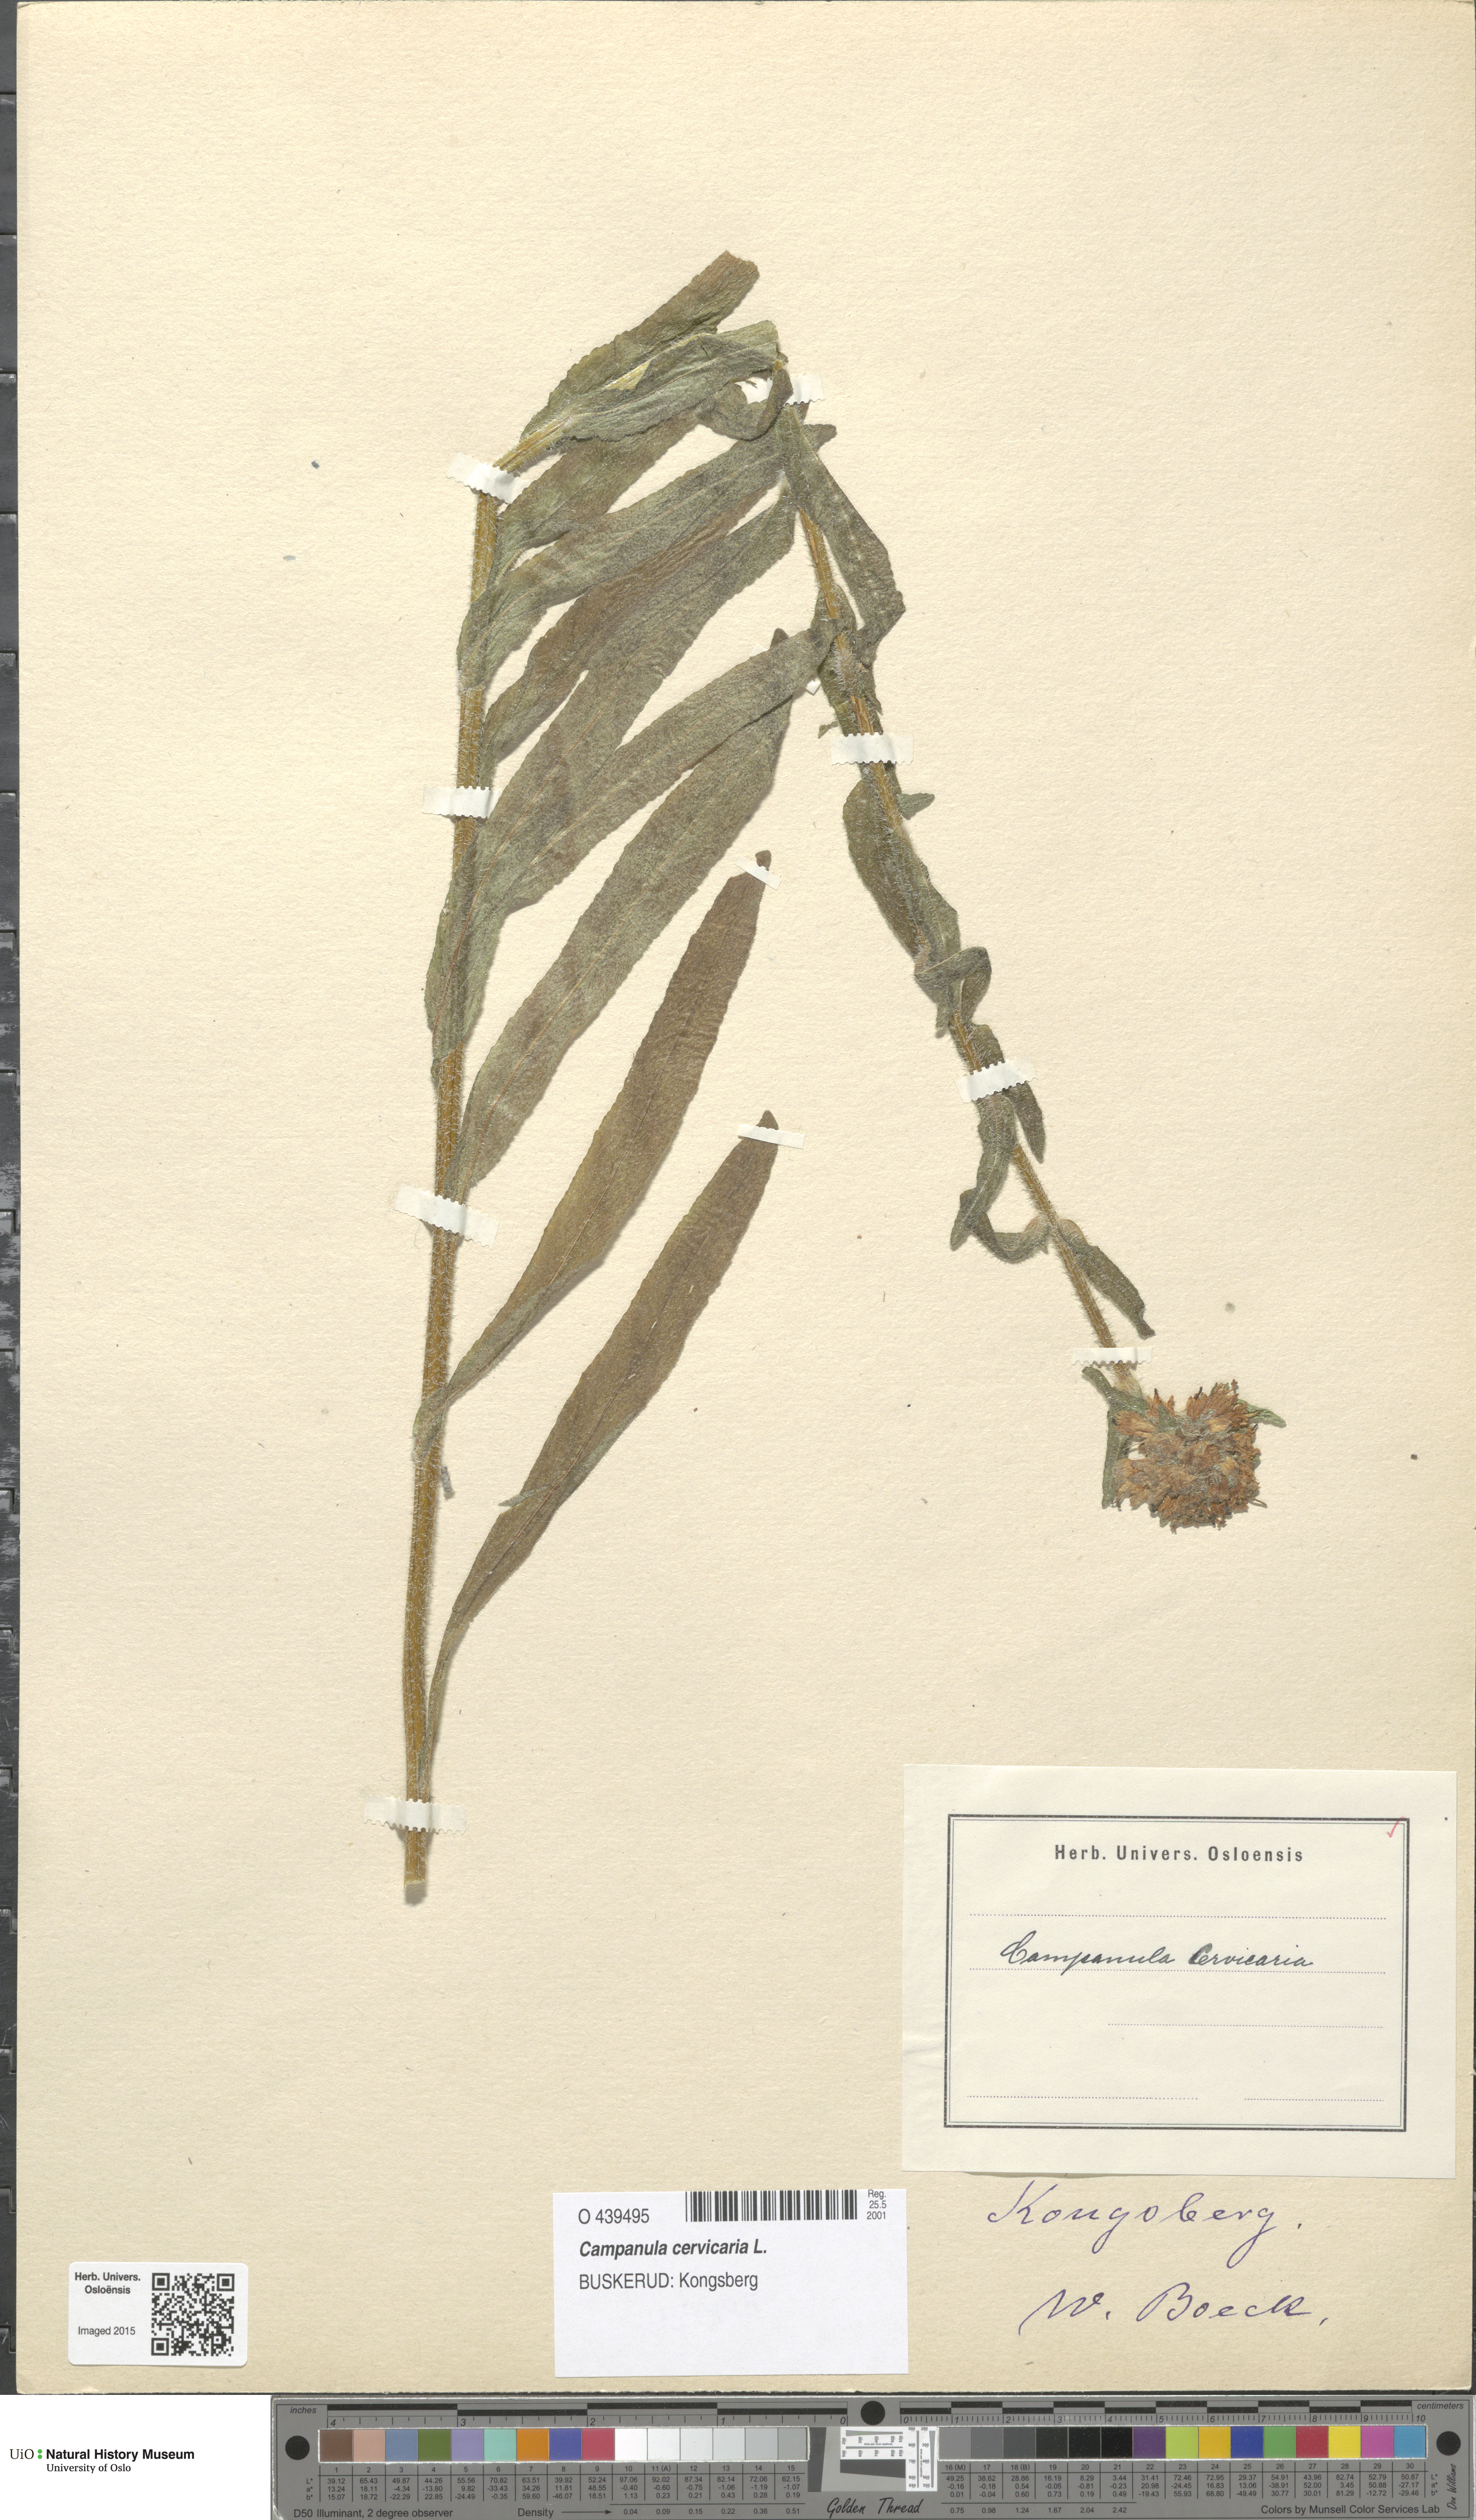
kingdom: Plantae
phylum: Tracheophyta
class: Magnoliopsida
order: Asterales
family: Campanulaceae
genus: Campanula
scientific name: Campanula cervicaria
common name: Bristly bellflower
